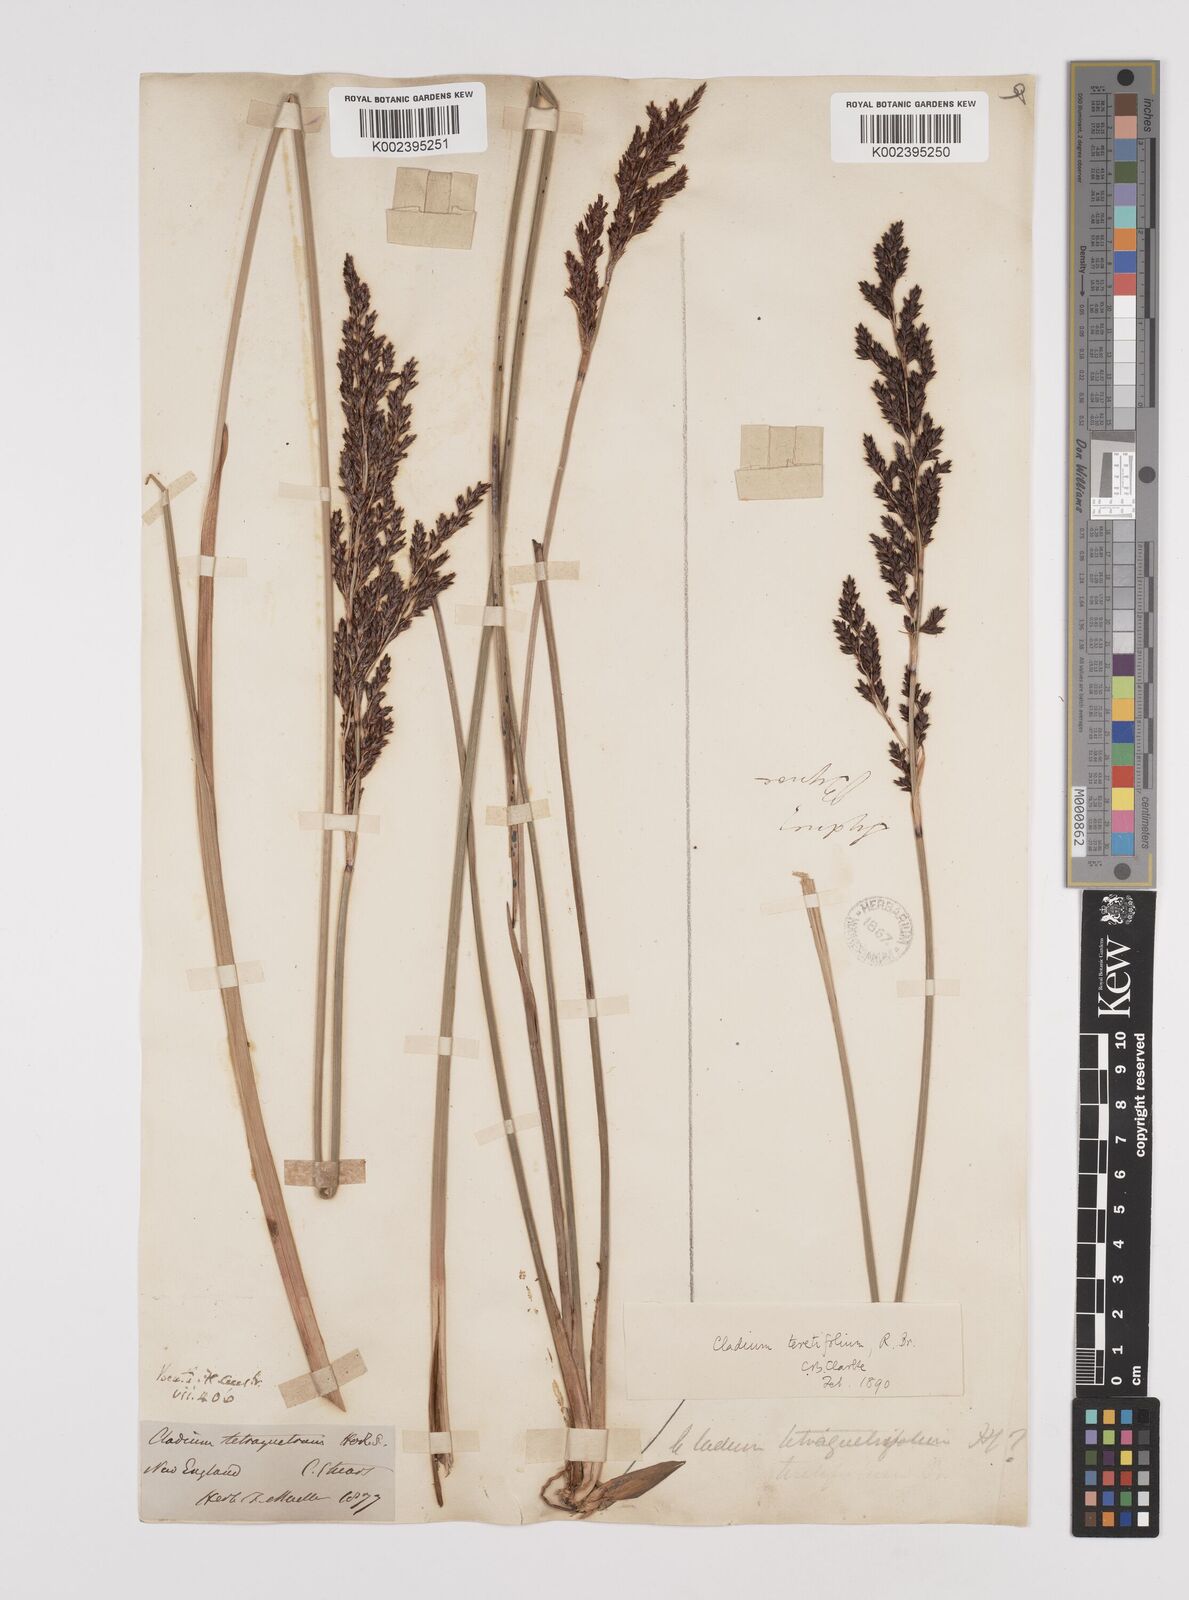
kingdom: Plantae
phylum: Tracheophyta
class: Liliopsida
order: Poales
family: Cyperaceae
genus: Machaerina
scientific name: Machaerina tetragona
